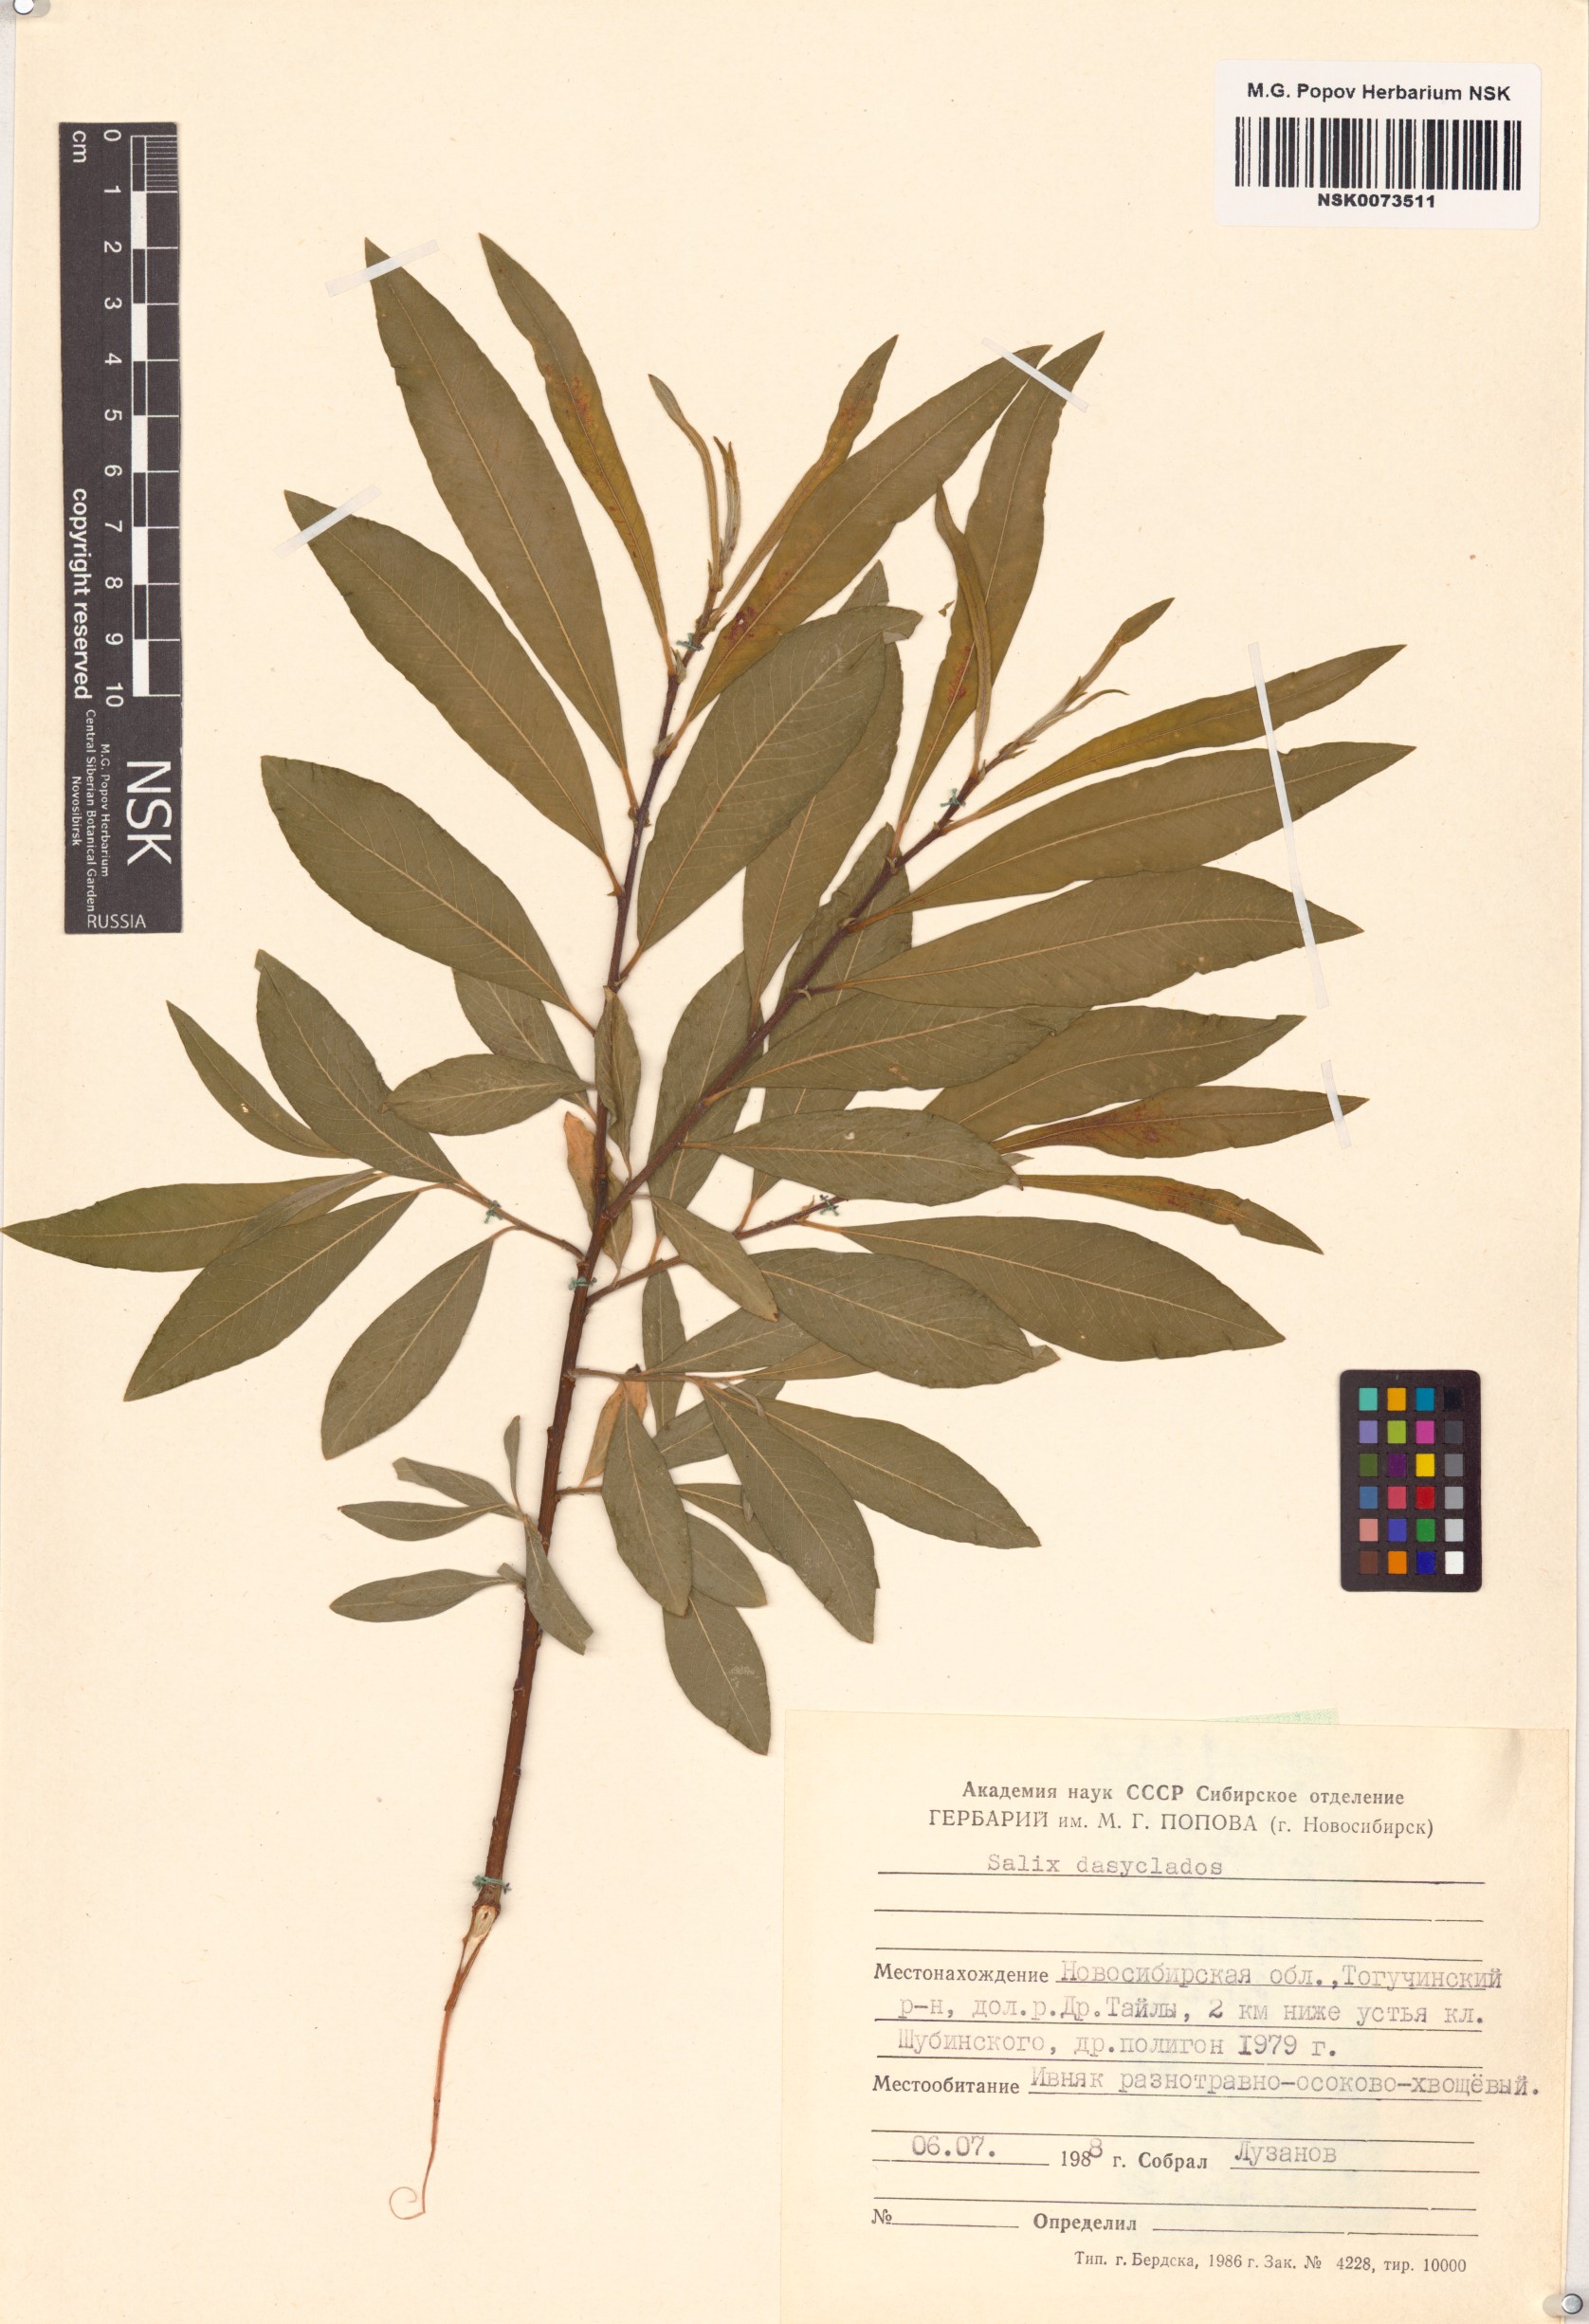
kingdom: Plantae
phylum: Tracheophyta
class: Magnoliopsida
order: Malpighiales
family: Salicaceae
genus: Salix
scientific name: Salix gmelinii
